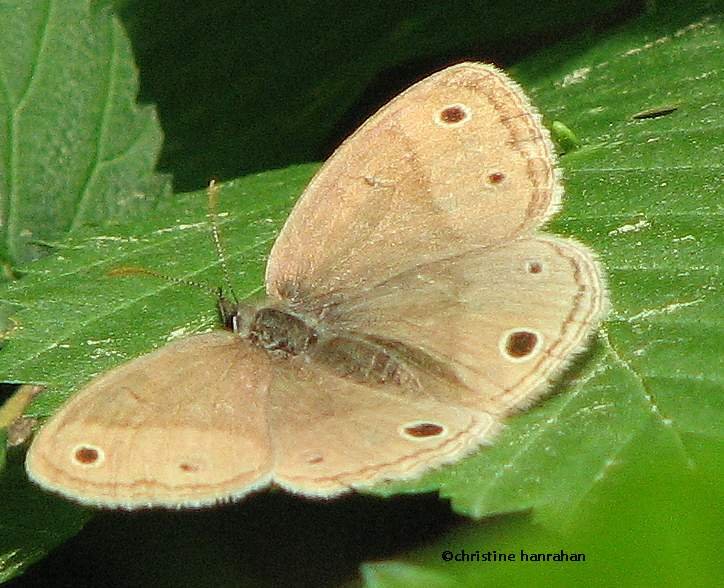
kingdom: Animalia
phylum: Arthropoda
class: Insecta
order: Lepidoptera
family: Nymphalidae
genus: Euptychia
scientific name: Euptychia cymela
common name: Little Wood Satyr
